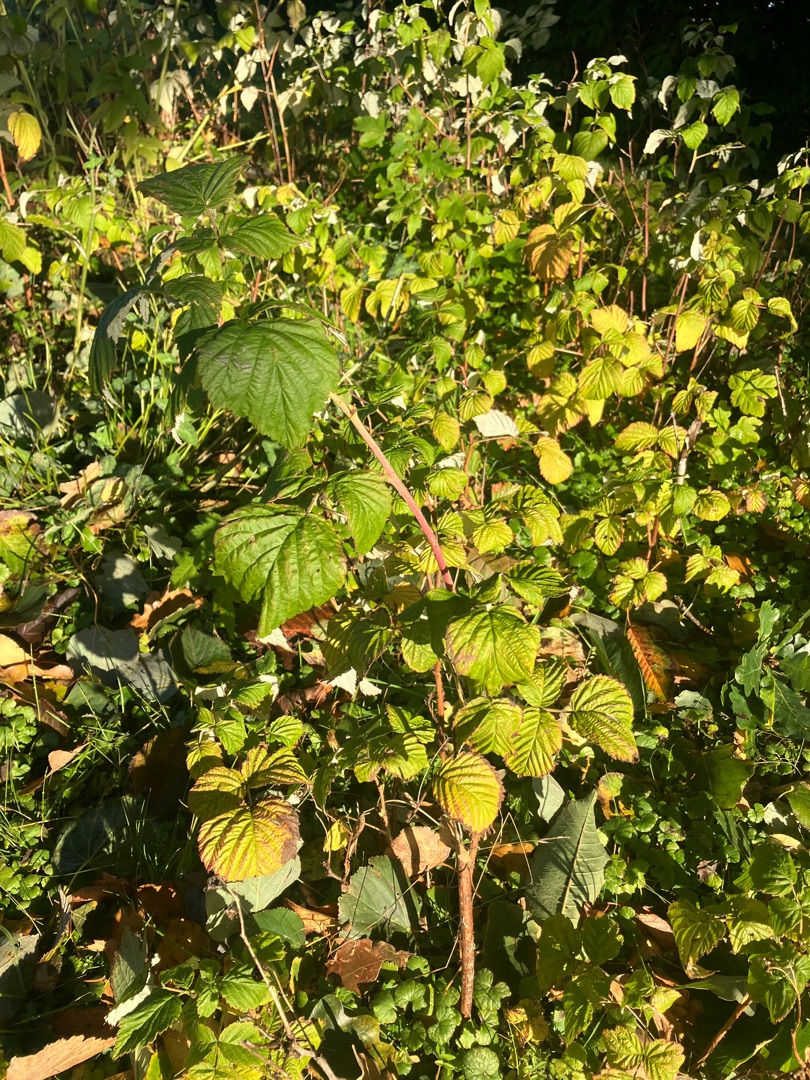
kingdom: Plantae
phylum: Tracheophyta
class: Magnoliopsida
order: Rosales
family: Rosaceae
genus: Rubus
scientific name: Rubus idaeus
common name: Hindbær
